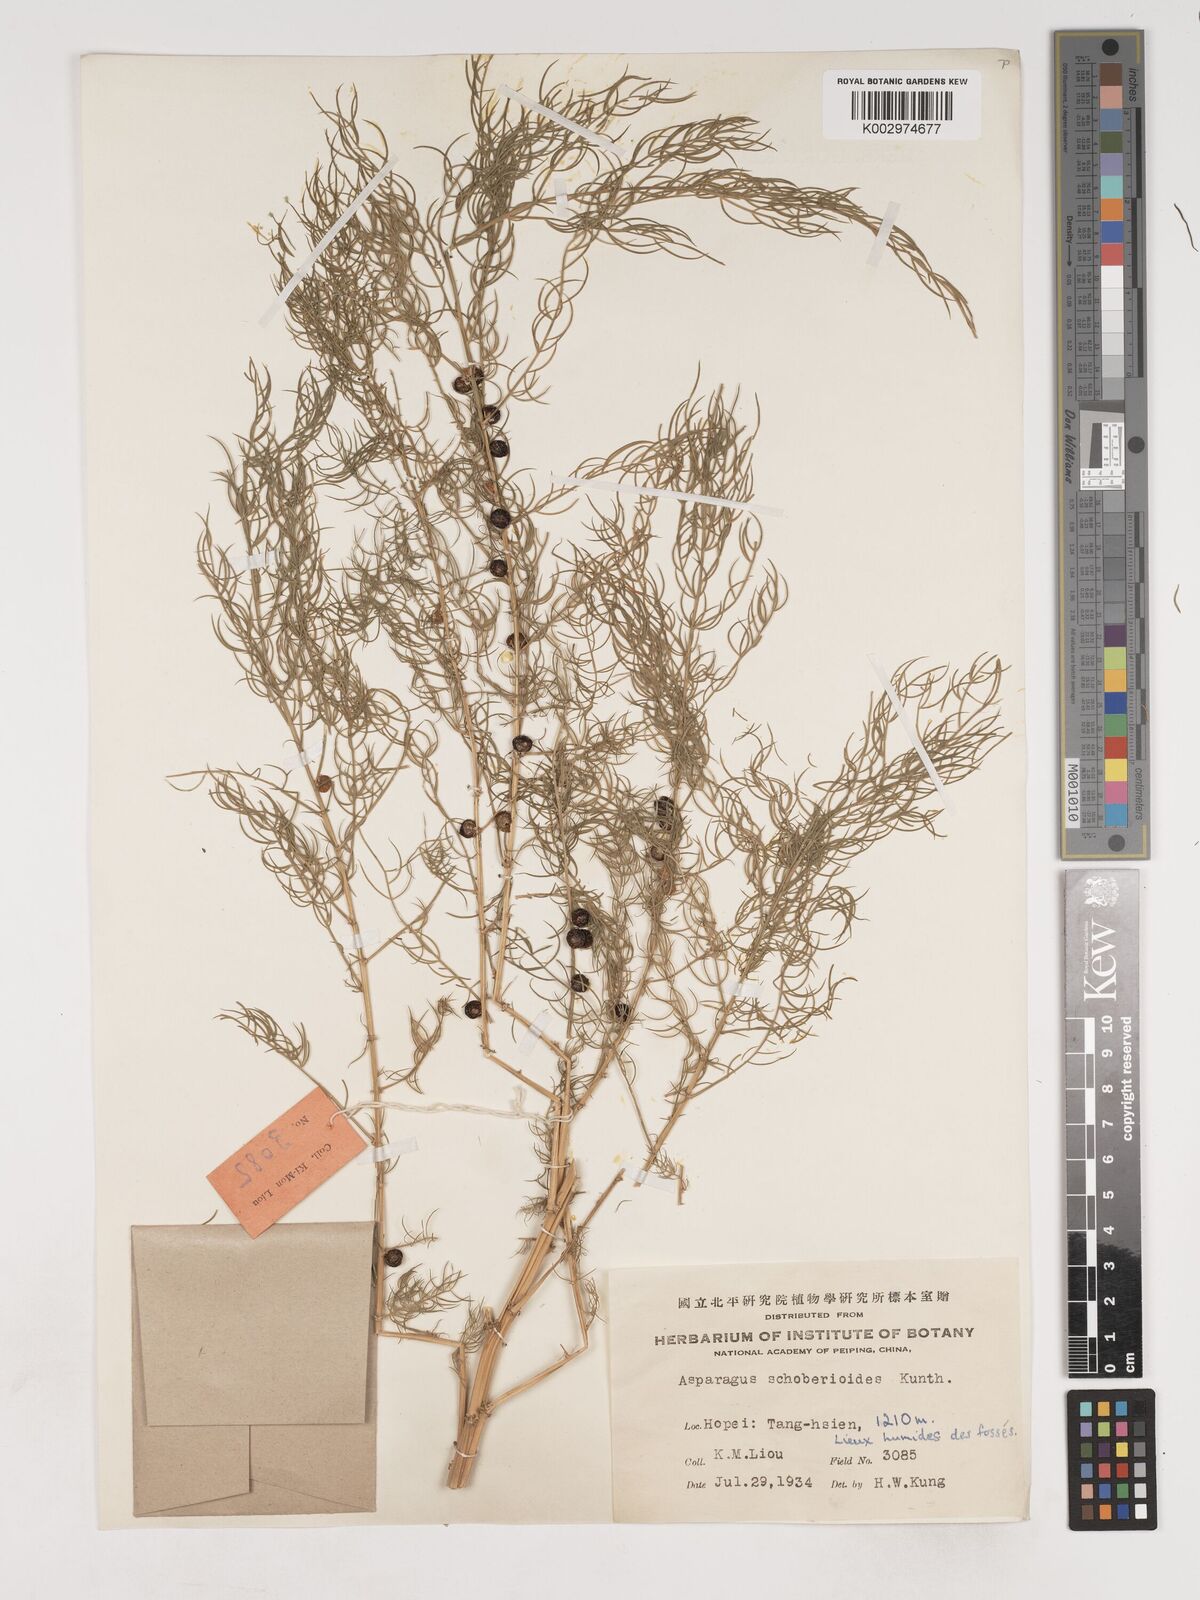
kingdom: Plantae
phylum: Tracheophyta
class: Liliopsida
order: Asparagales
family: Asparagaceae
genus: Asparagus
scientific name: Asparagus schoberioides
